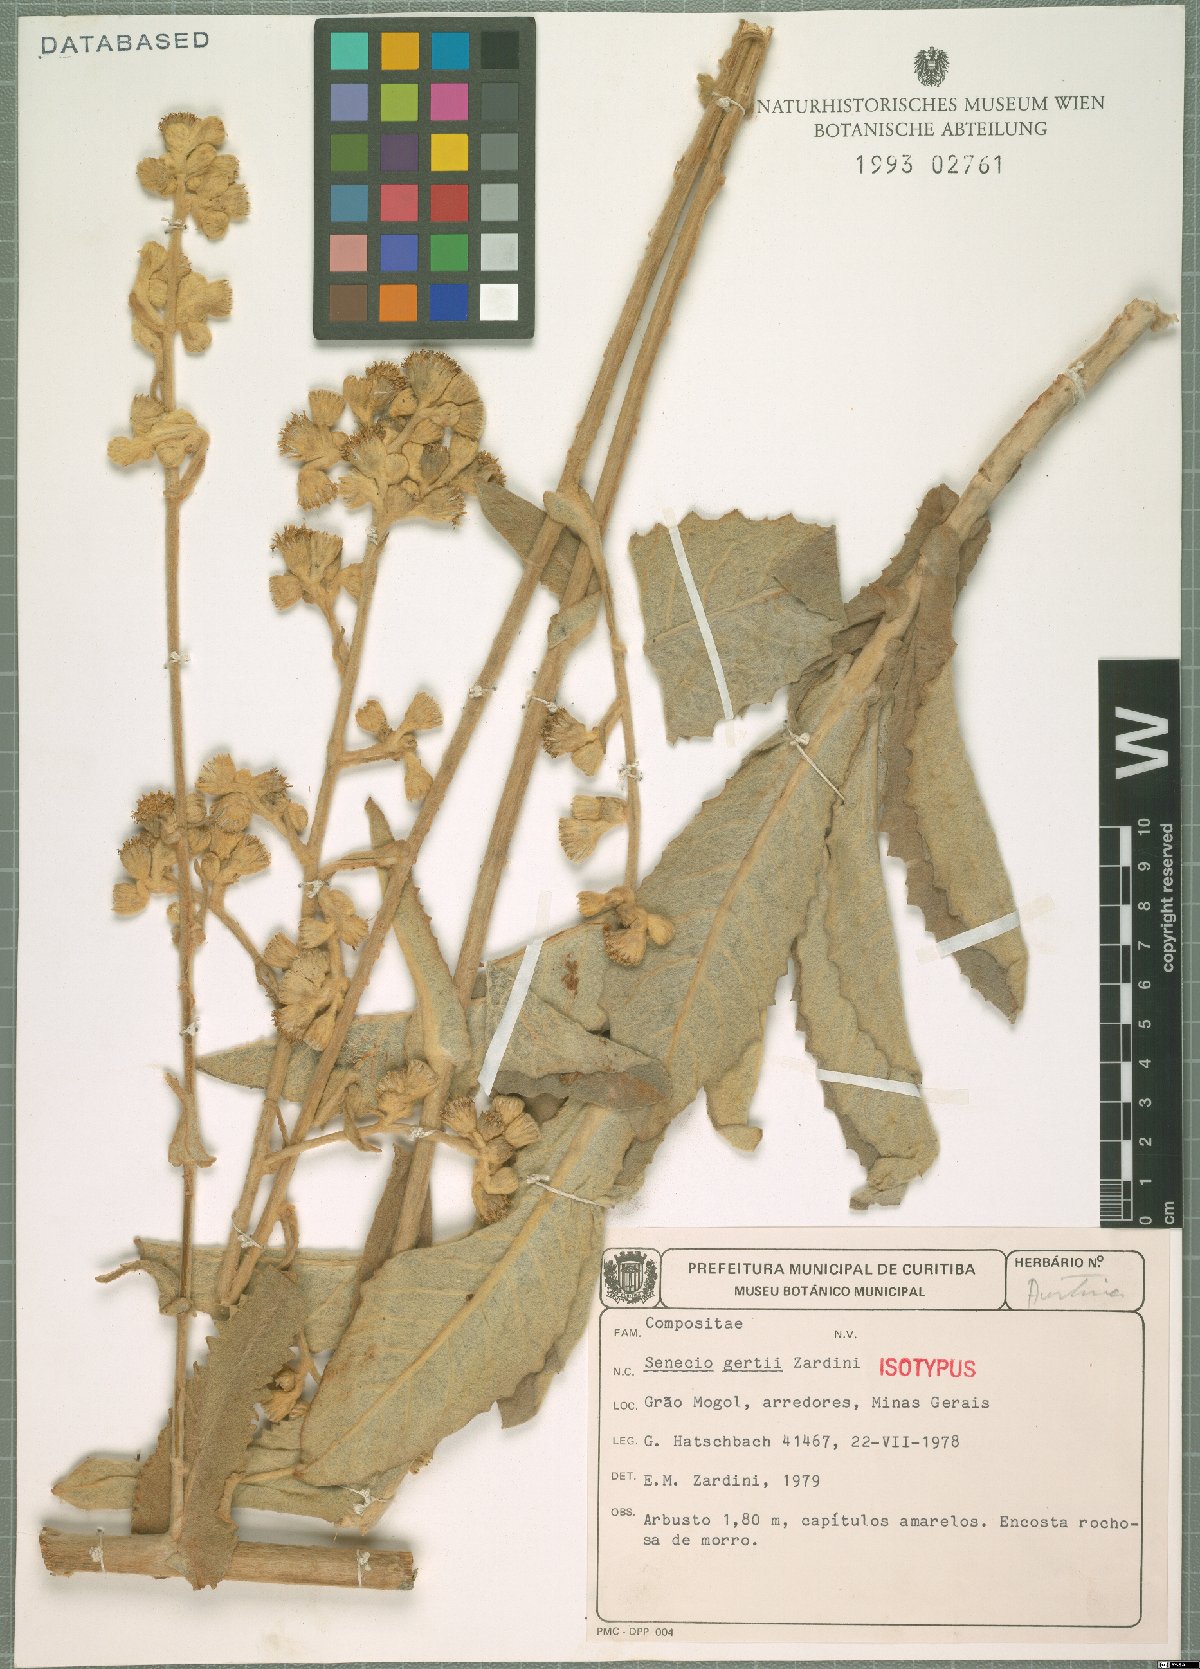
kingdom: Plantae
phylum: Tracheophyta
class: Magnoliopsida
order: Asterales
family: Asteraceae
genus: Senecio
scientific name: Senecio gertii
